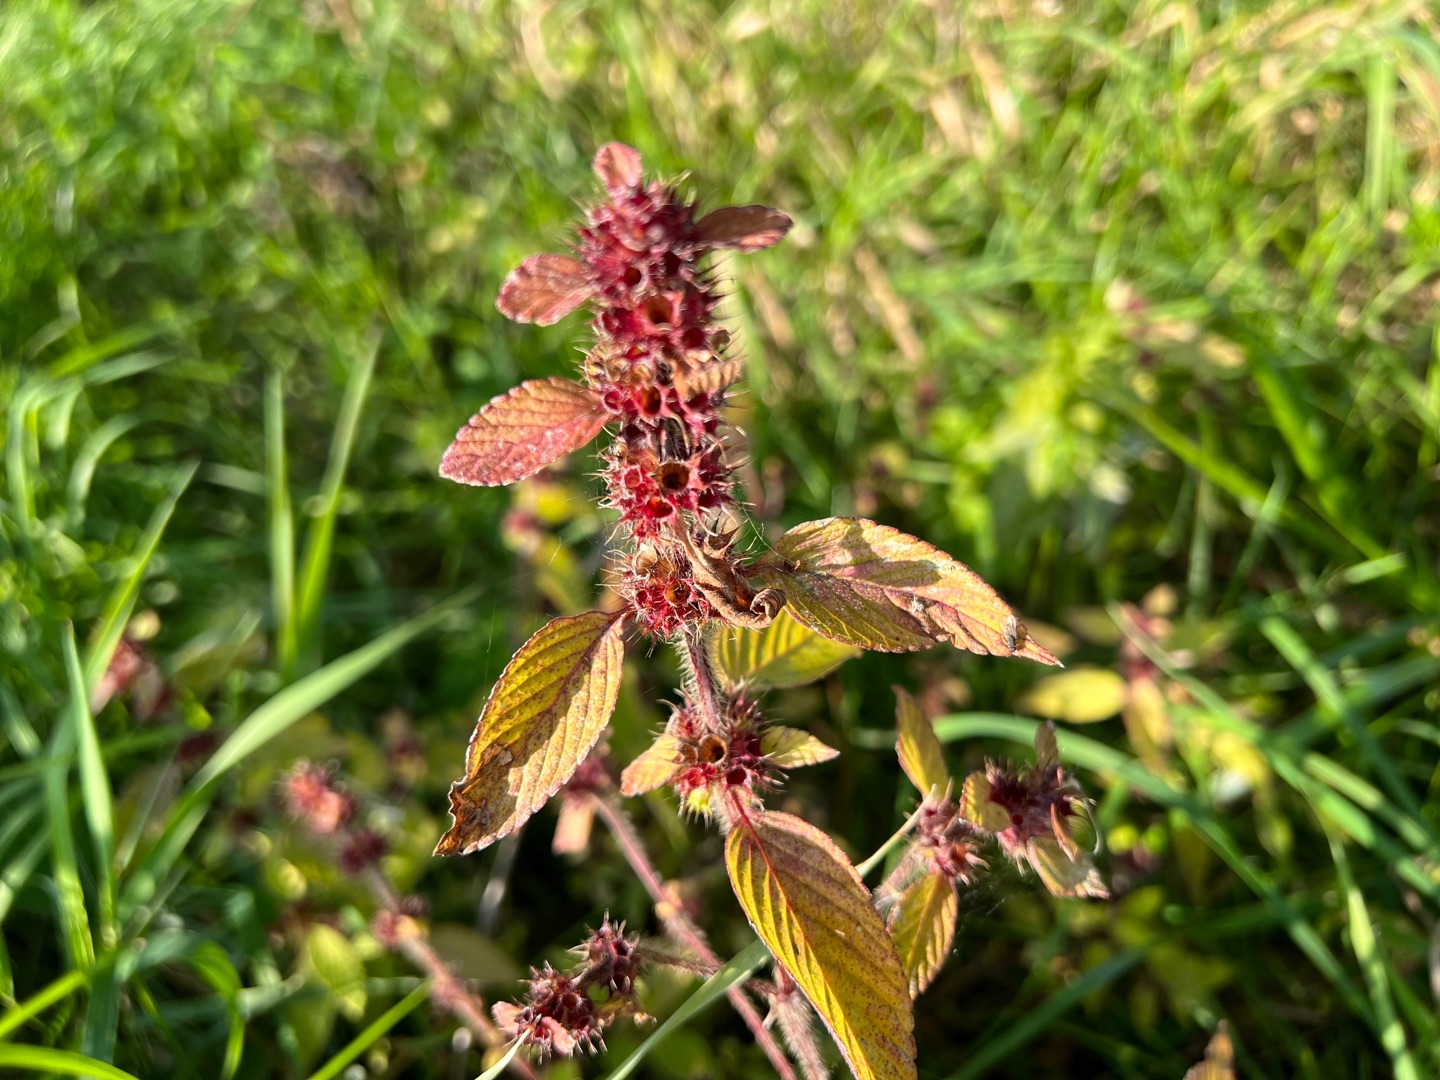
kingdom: Plantae
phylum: Tracheophyta
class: Magnoliopsida
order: Lamiales
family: Lamiaceae
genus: Galeopsis
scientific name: Galeopsis
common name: Hanekroslægten
